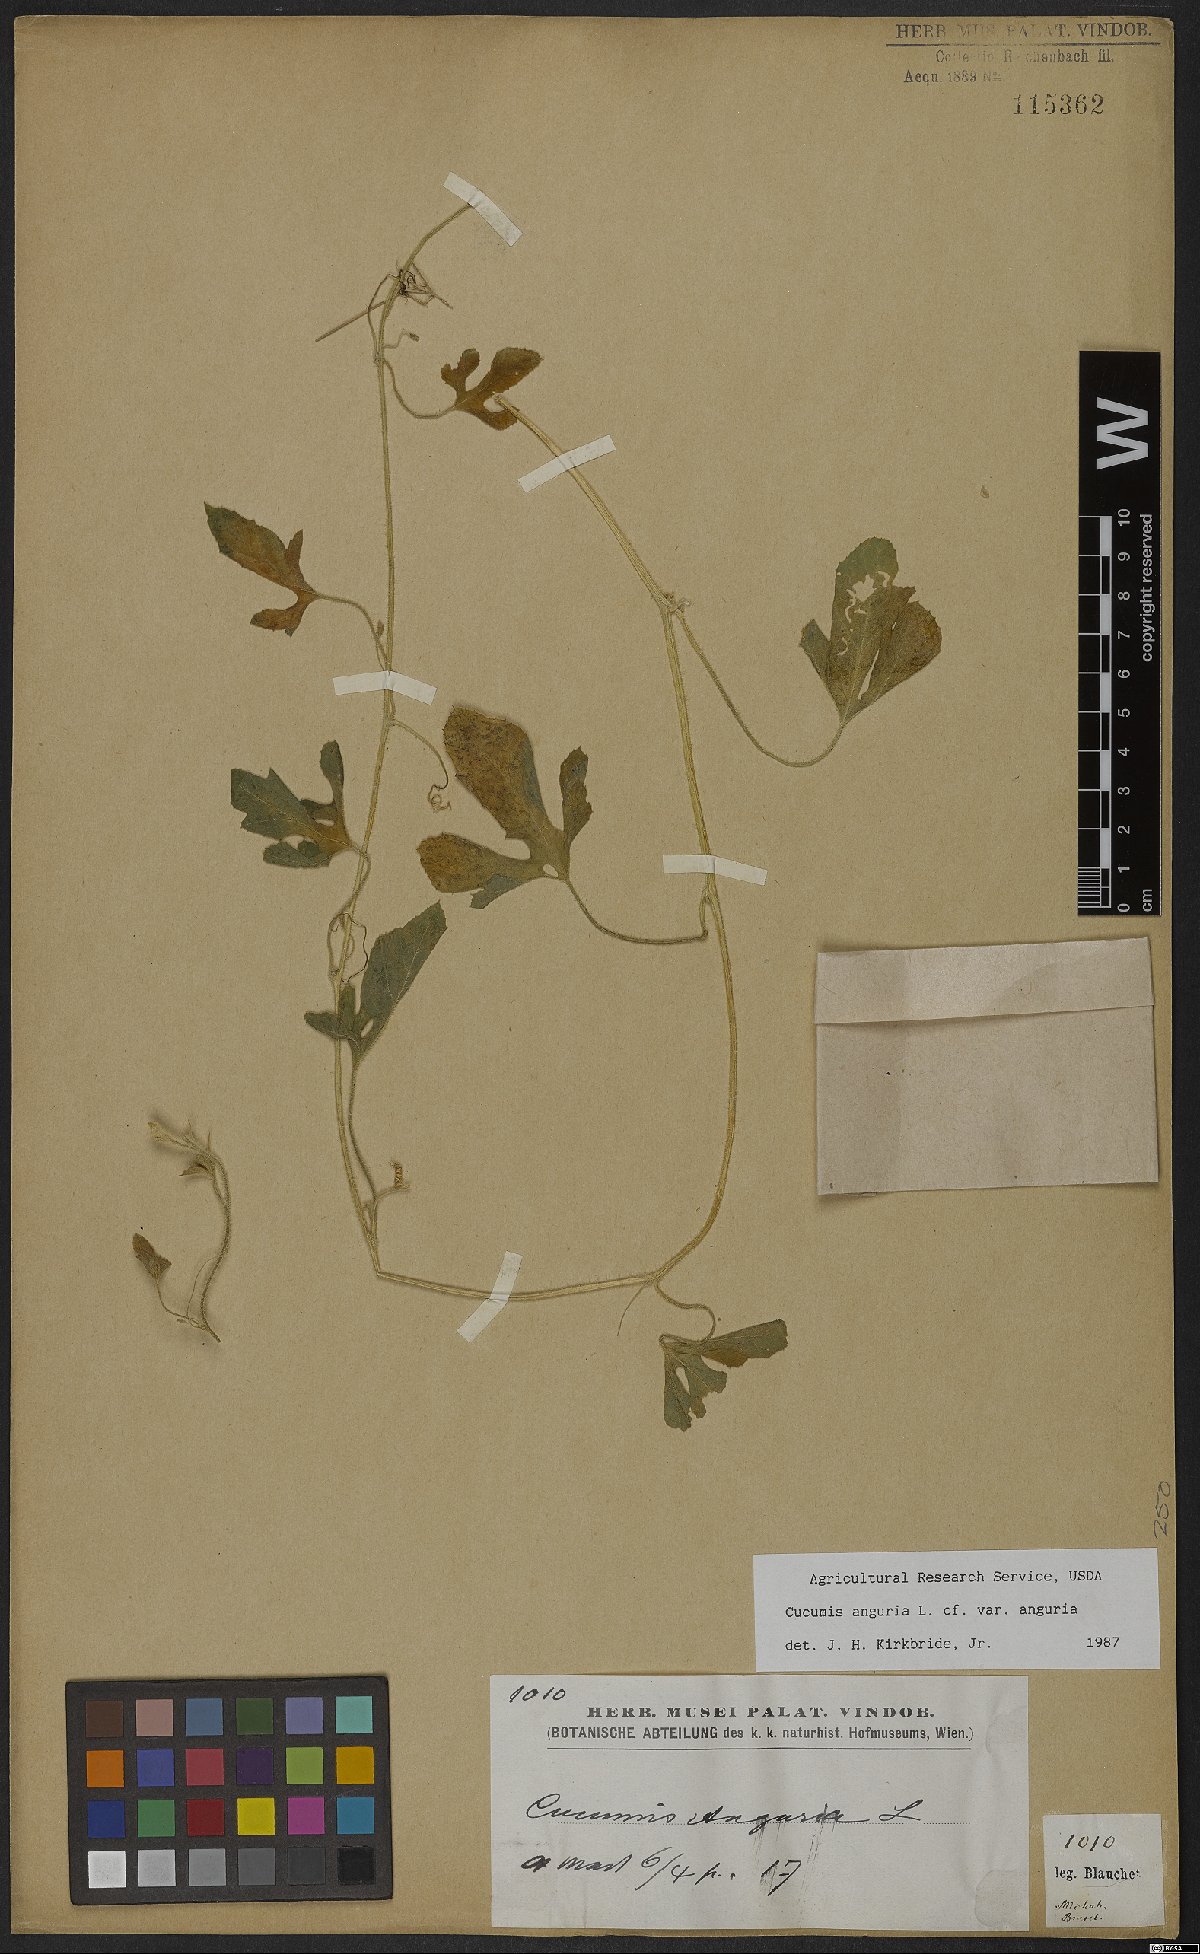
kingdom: Plantae
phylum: Tracheophyta
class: Magnoliopsida
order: Cucurbitales
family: Cucurbitaceae
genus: Cucumis
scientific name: Cucumis anguria
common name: West indian gherkin
